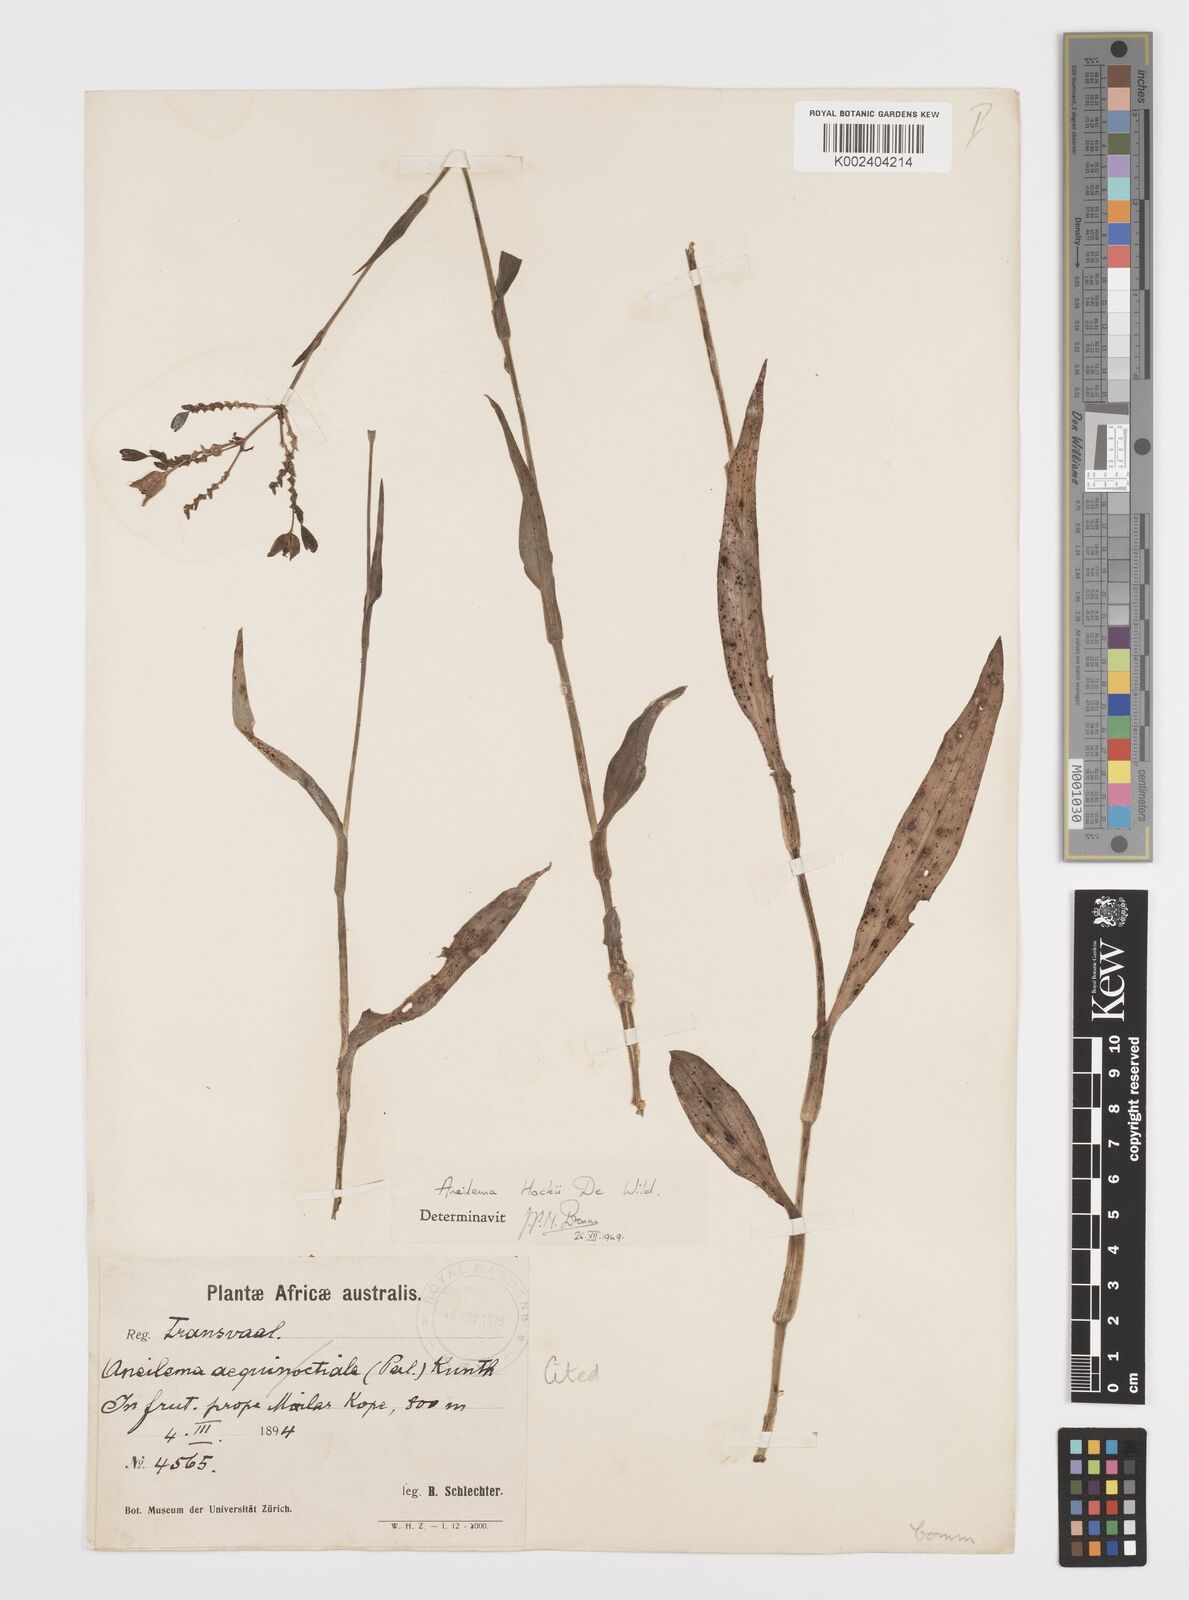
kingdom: Plantae
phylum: Tracheophyta
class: Liliopsida
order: Commelinales
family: Commelinaceae
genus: Aneilema
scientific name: Aneilema hockii
